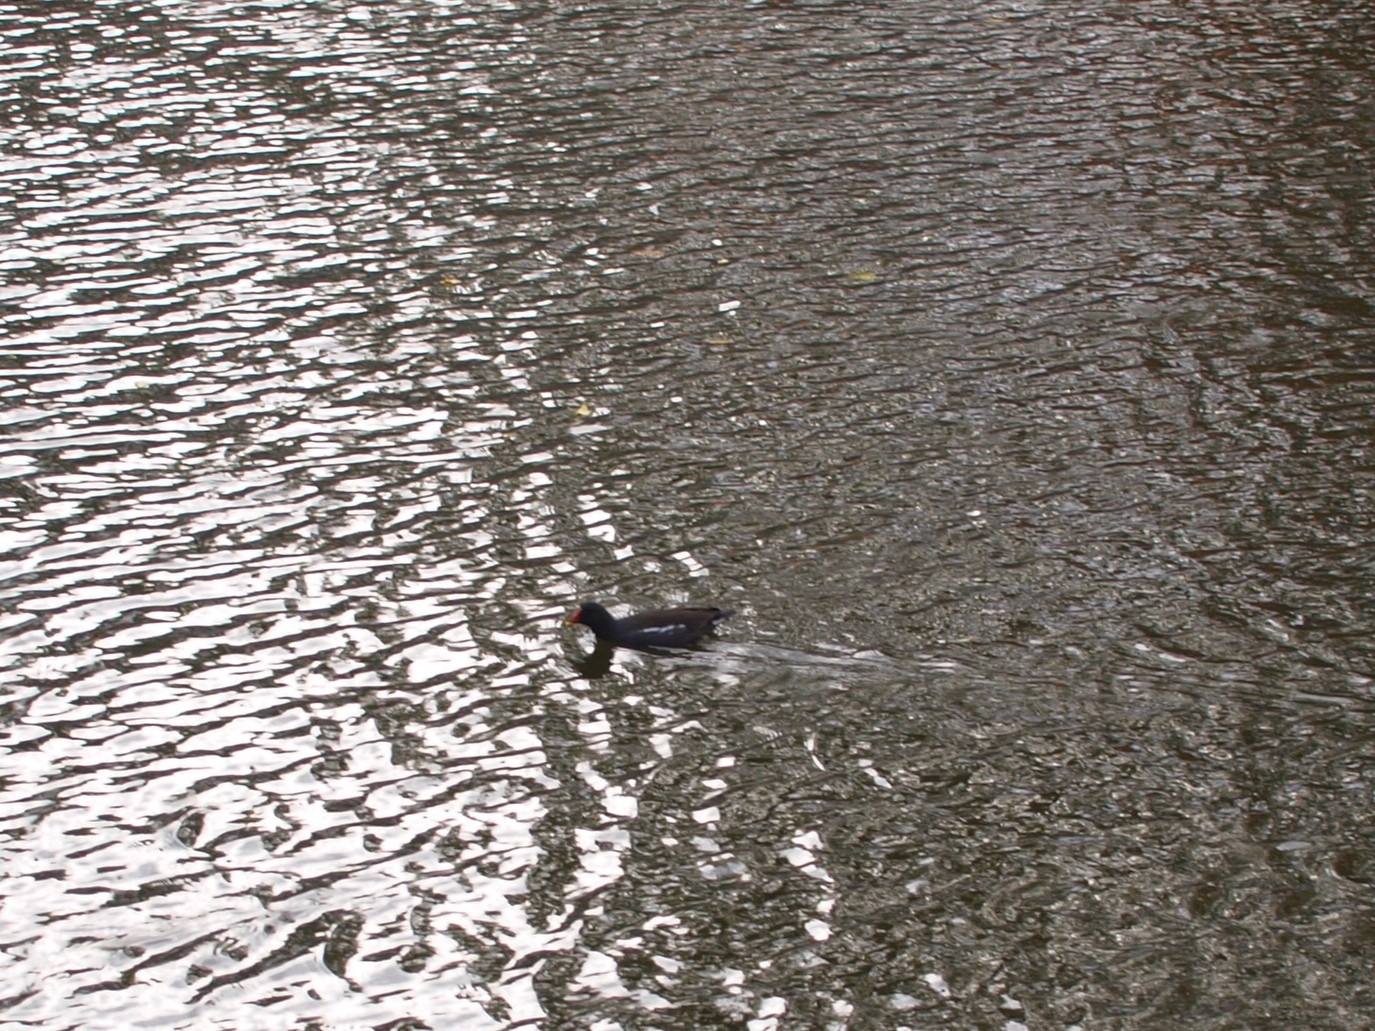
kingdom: Animalia
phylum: Chordata
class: Aves
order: Gruiformes
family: Rallidae
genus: Gallinula
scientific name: Gallinula chloropus
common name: Grønbenet rørhøne
